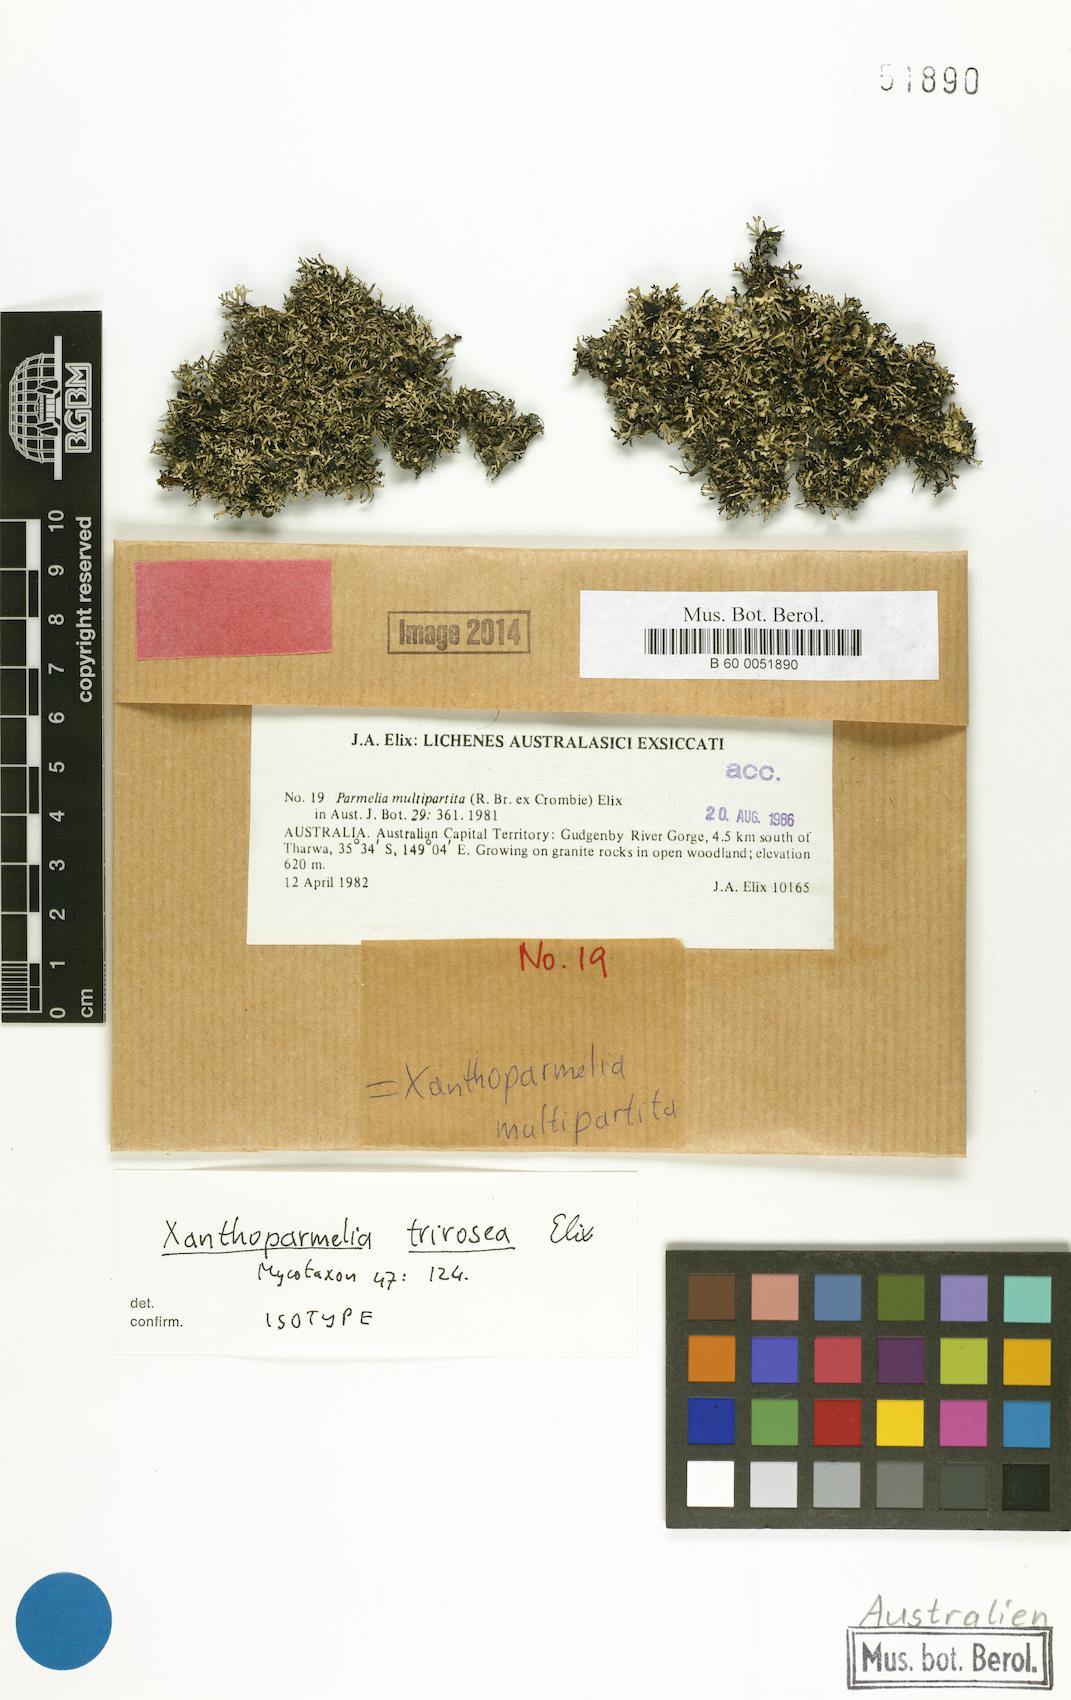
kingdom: Fungi
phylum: Ascomycota
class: Lecanoromycetes
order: Lecanorales
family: Parmeliaceae
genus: Xanthoparmelia
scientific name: Xanthoparmelia trirosea
